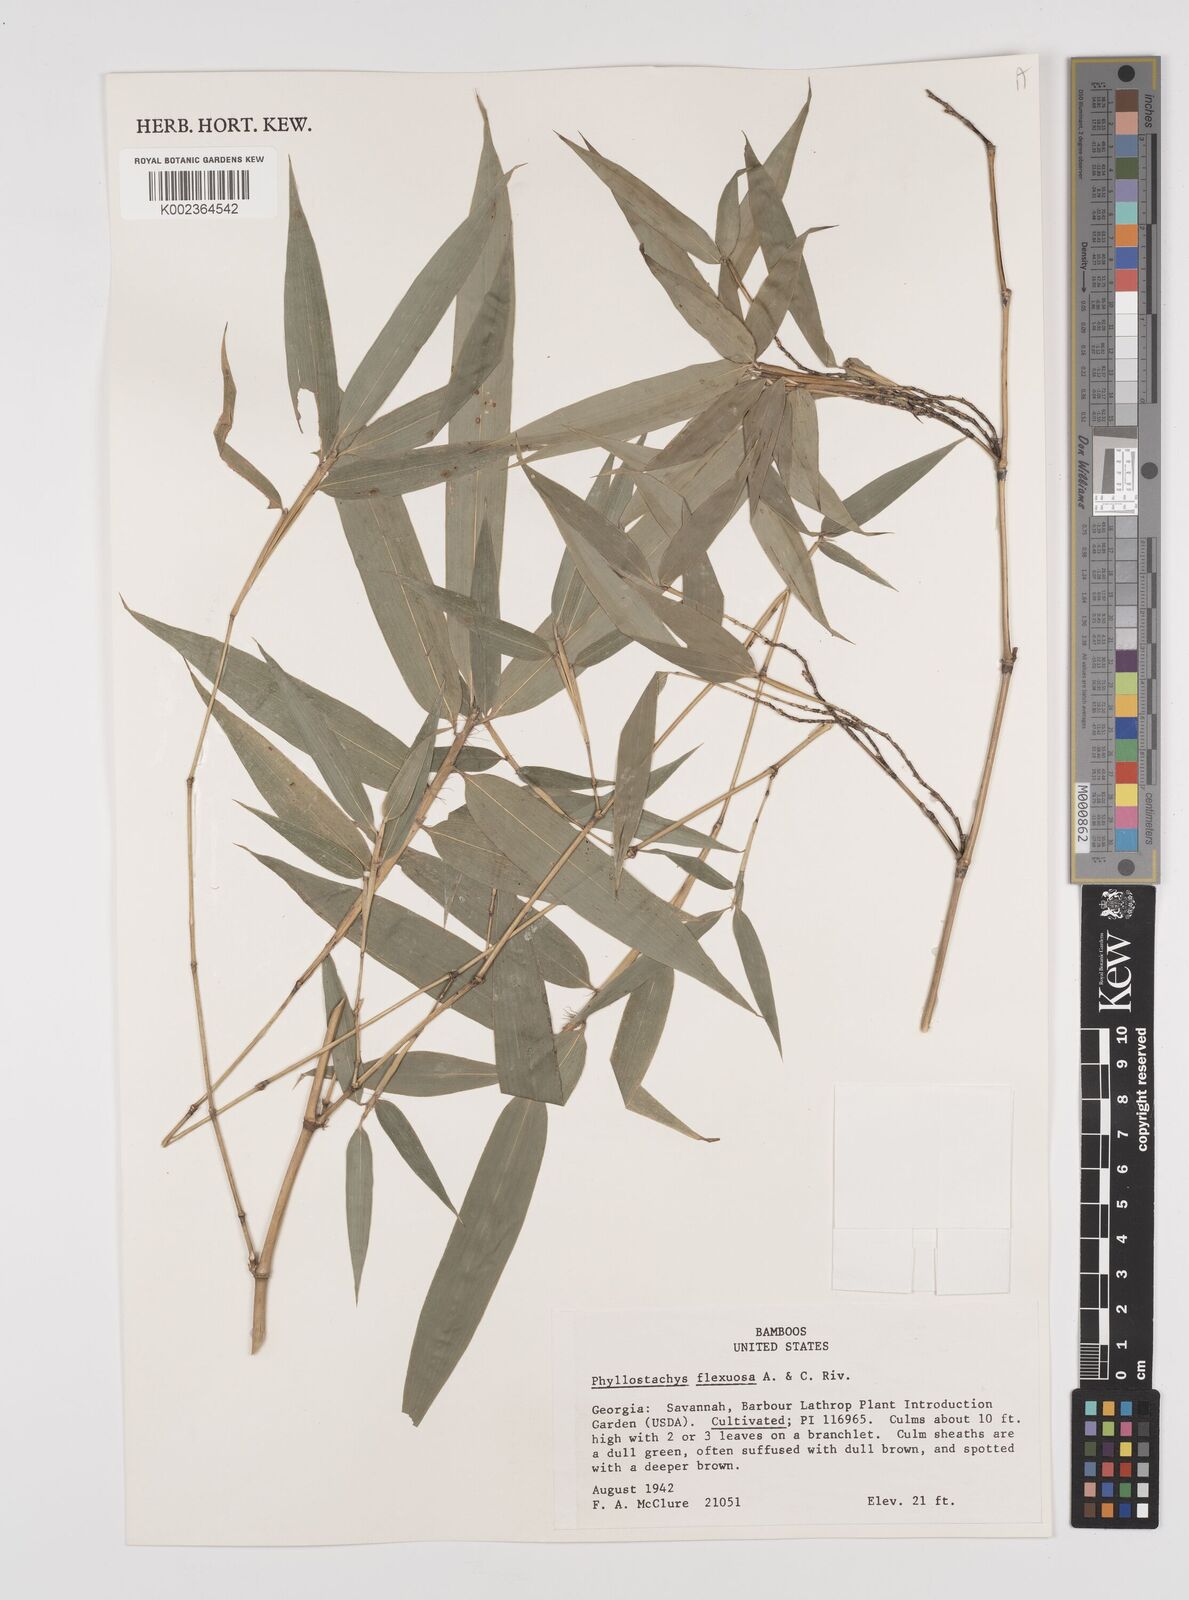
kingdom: Plantae
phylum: Tracheophyta
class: Liliopsida
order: Poales
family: Poaceae
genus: Phyllostachys
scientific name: Phyllostachys flexuosa
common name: Drooping timber bamboo
